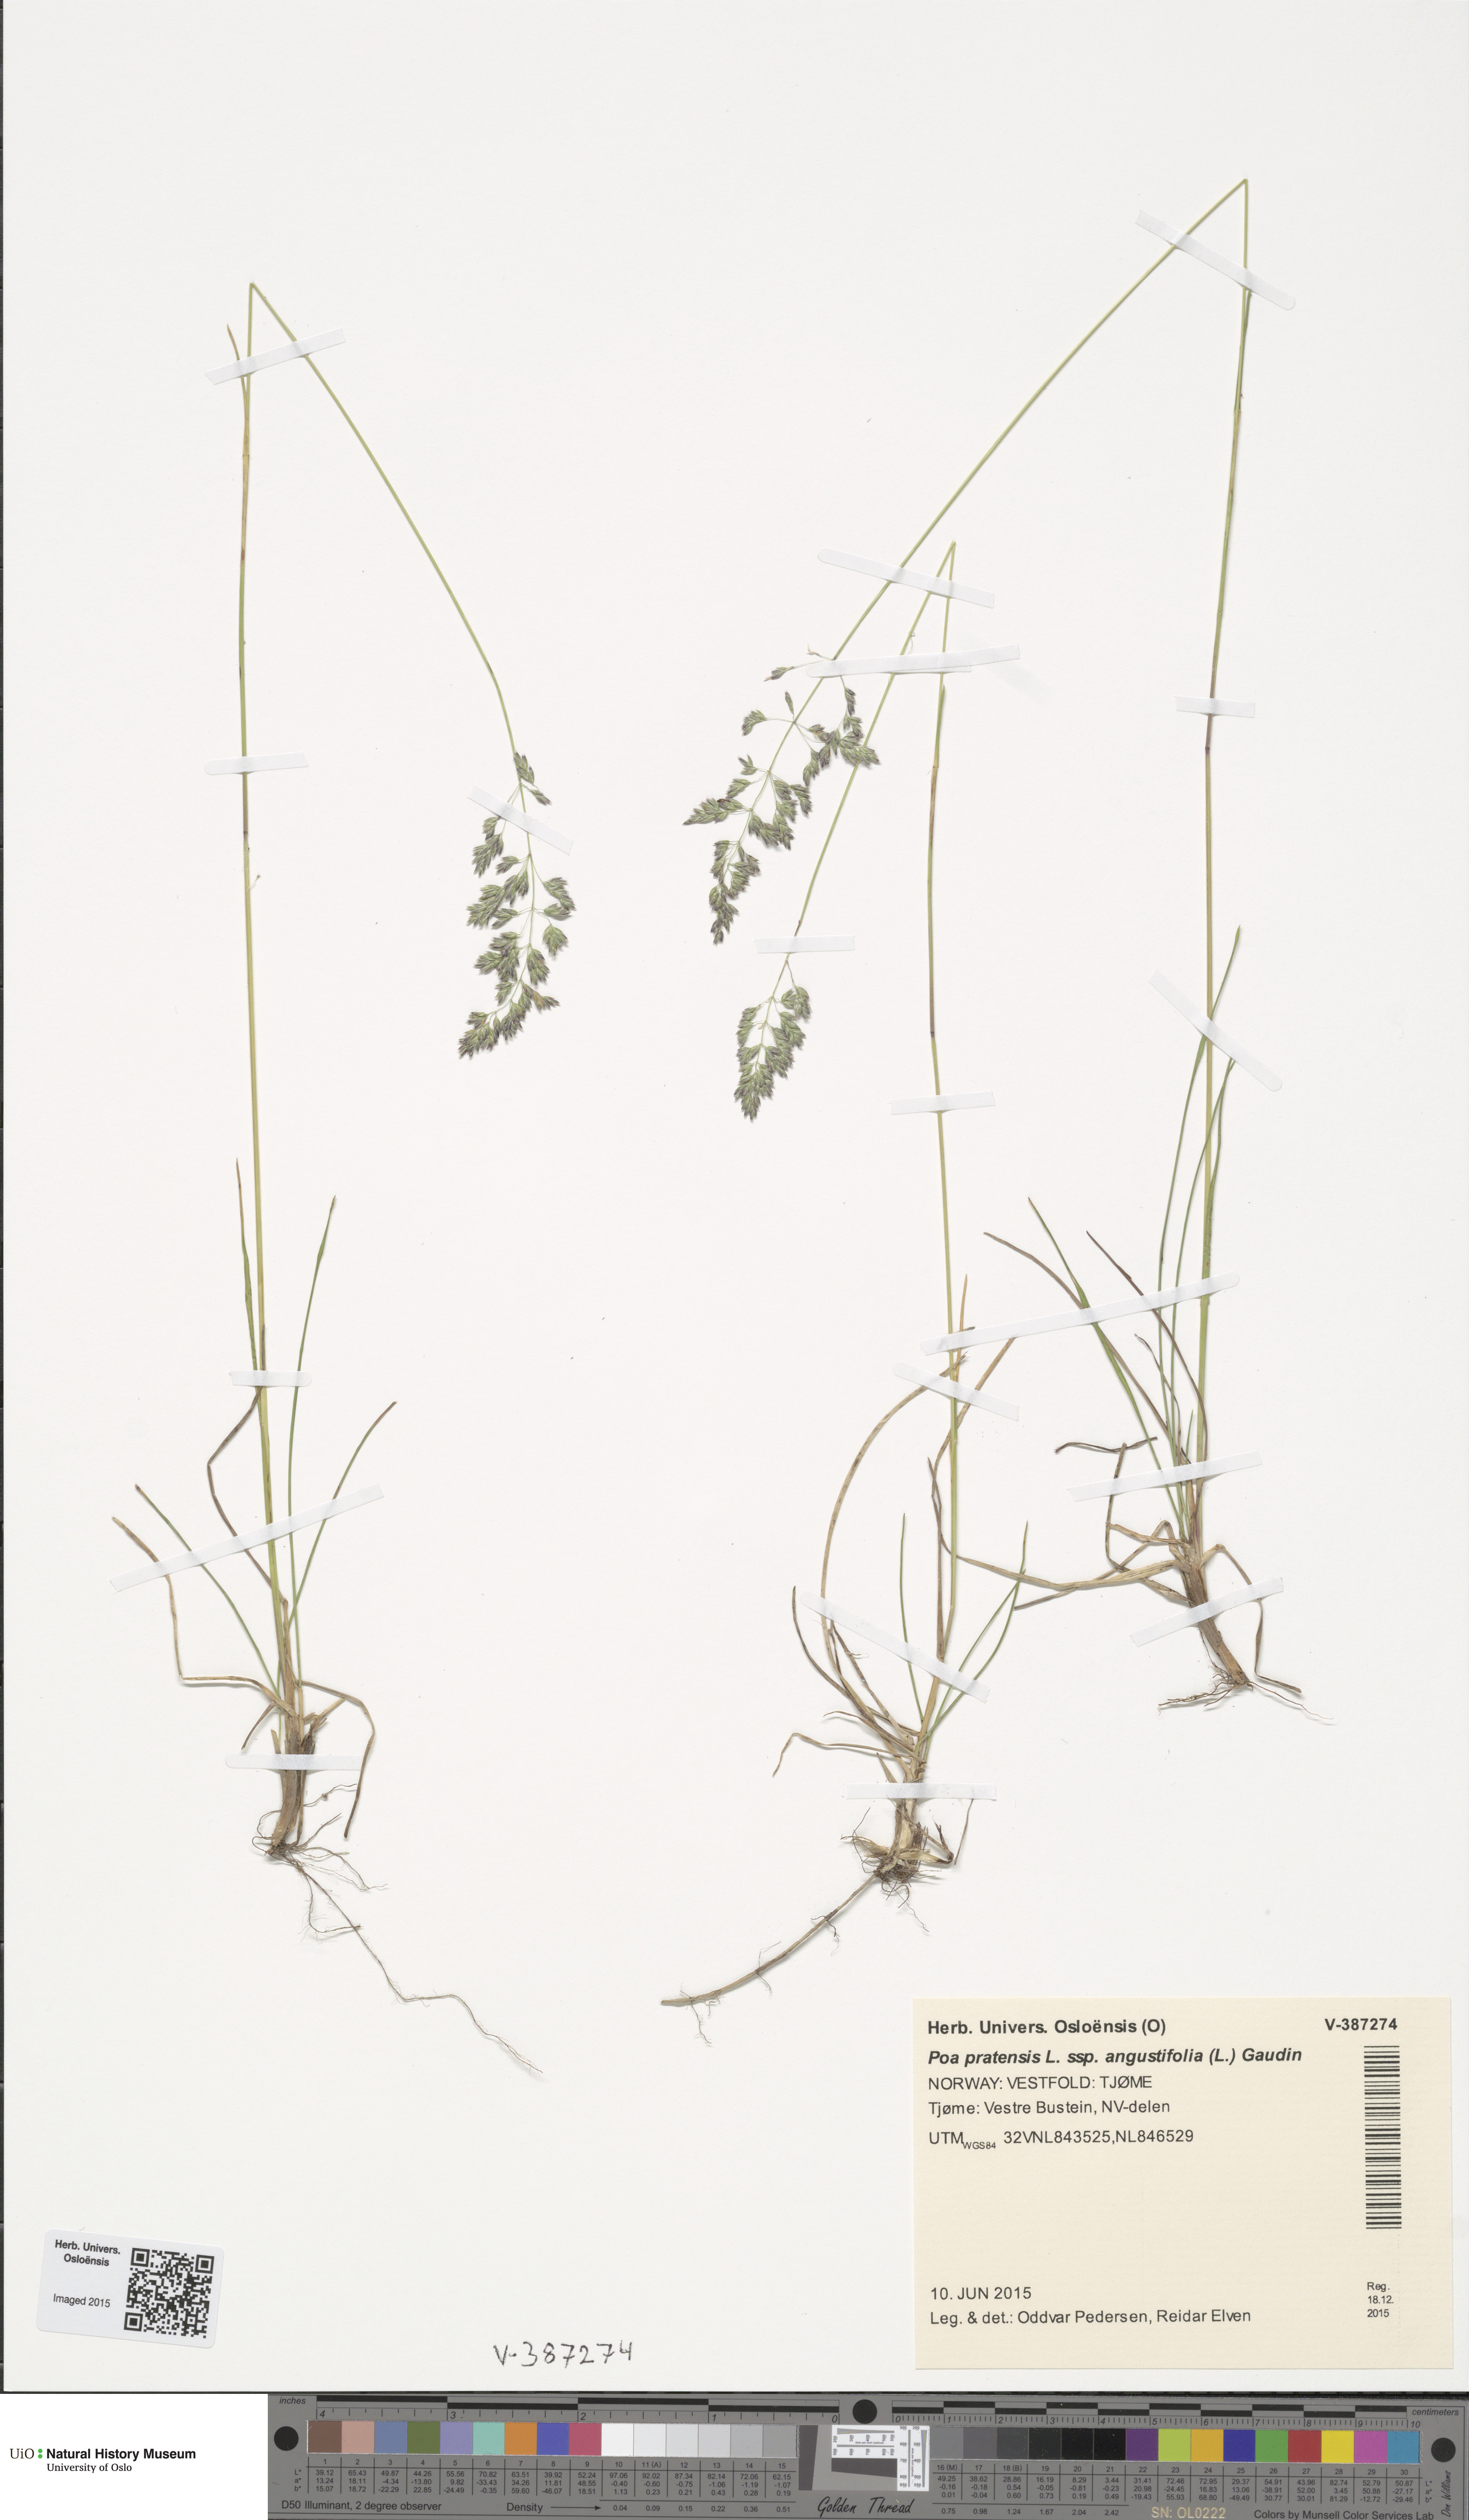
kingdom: Plantae
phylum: Tracheophyta
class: Liliopsida
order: Poales
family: Poaceae
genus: Poa
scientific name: Poa angustifolia
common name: Narrow-leaved meadow-grass
